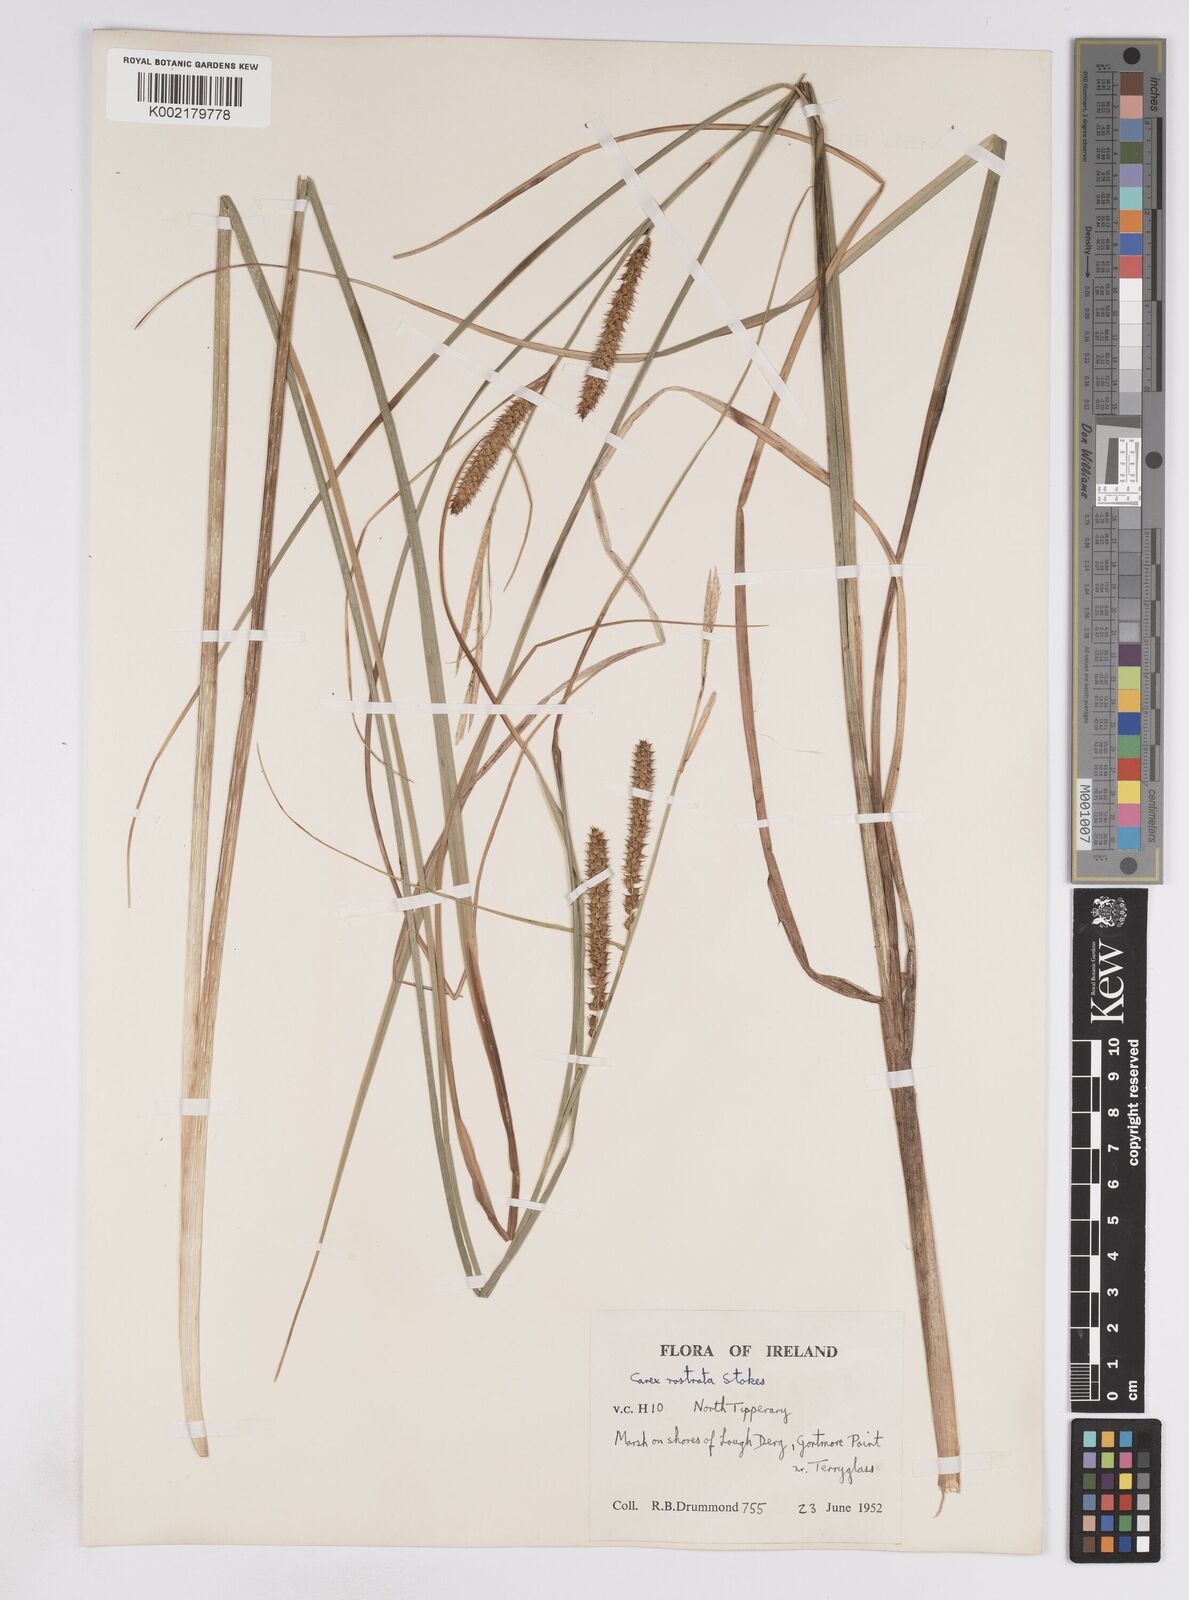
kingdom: Plantae
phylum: Tracheophyta
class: Liliopsida
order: Poales
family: Cyperaceae
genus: Carex
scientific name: Carex rostrata
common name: Bottle sedge
